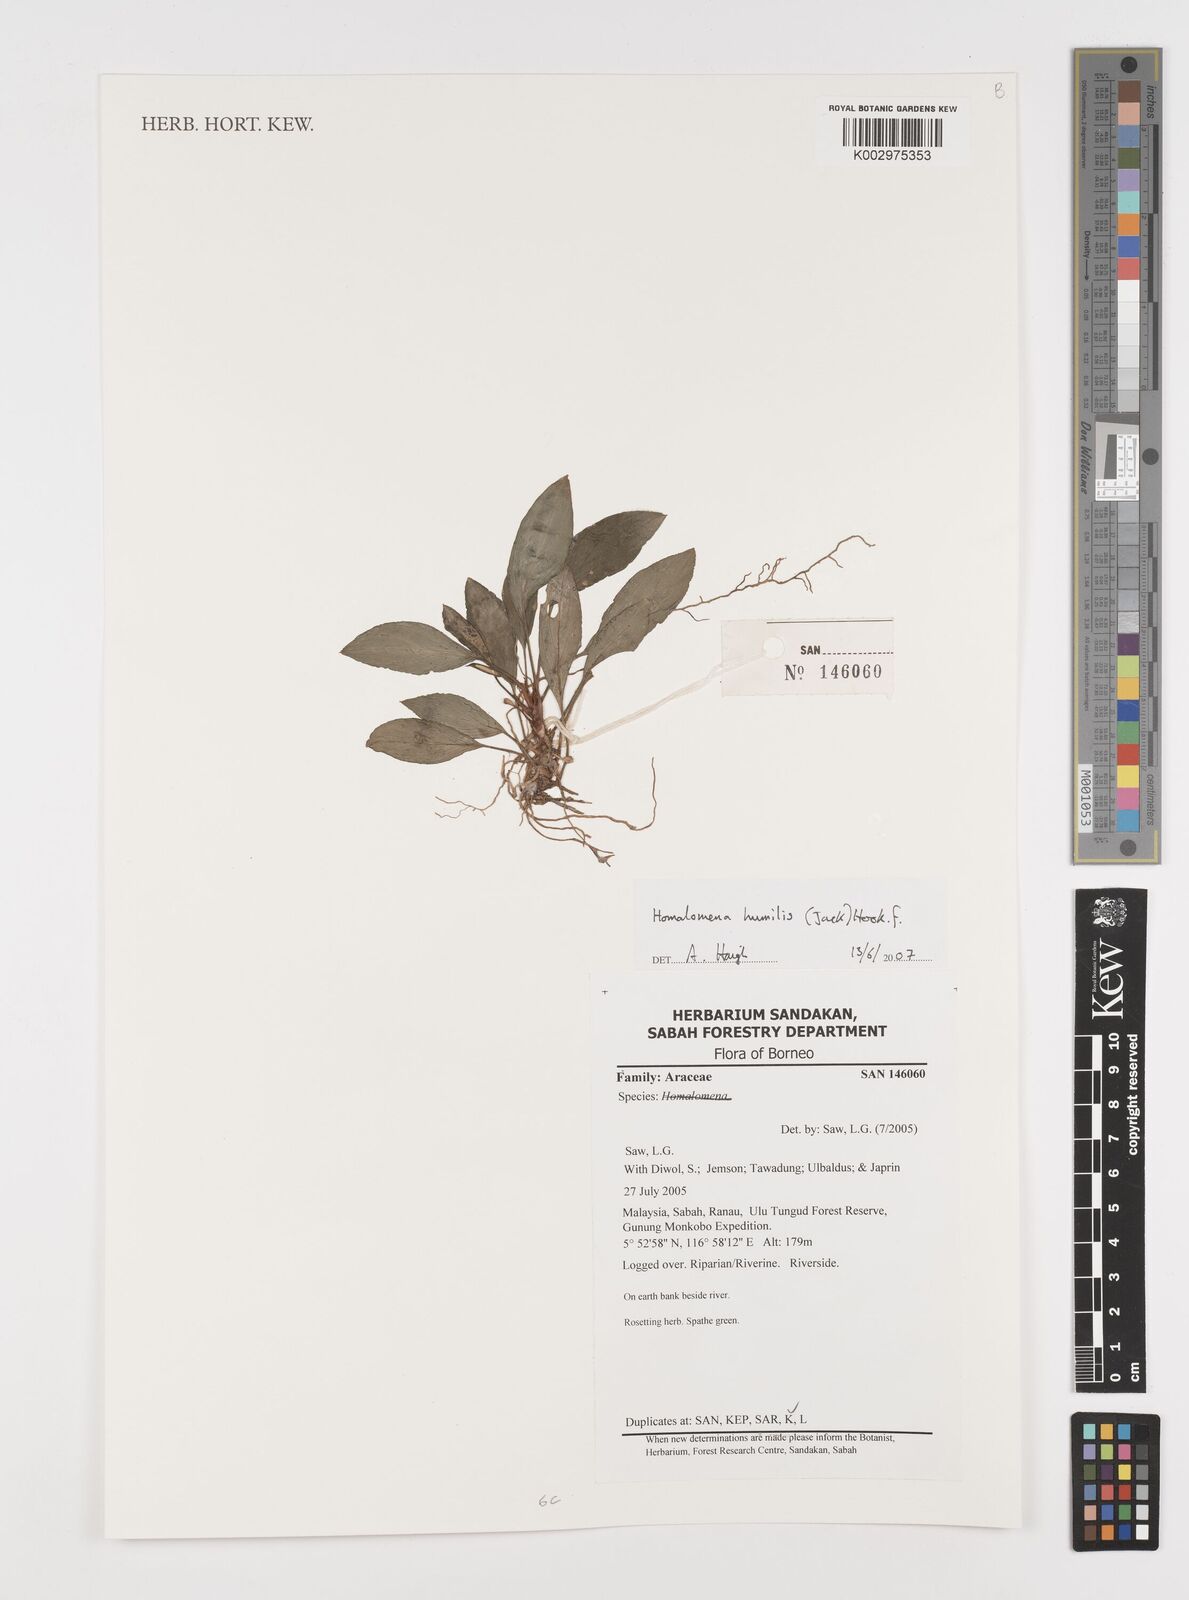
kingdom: Plantae
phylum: Tracheophyta
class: Liliopsida
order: Alismatales
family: Araceae
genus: Homalomena
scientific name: Homalomena humilis
